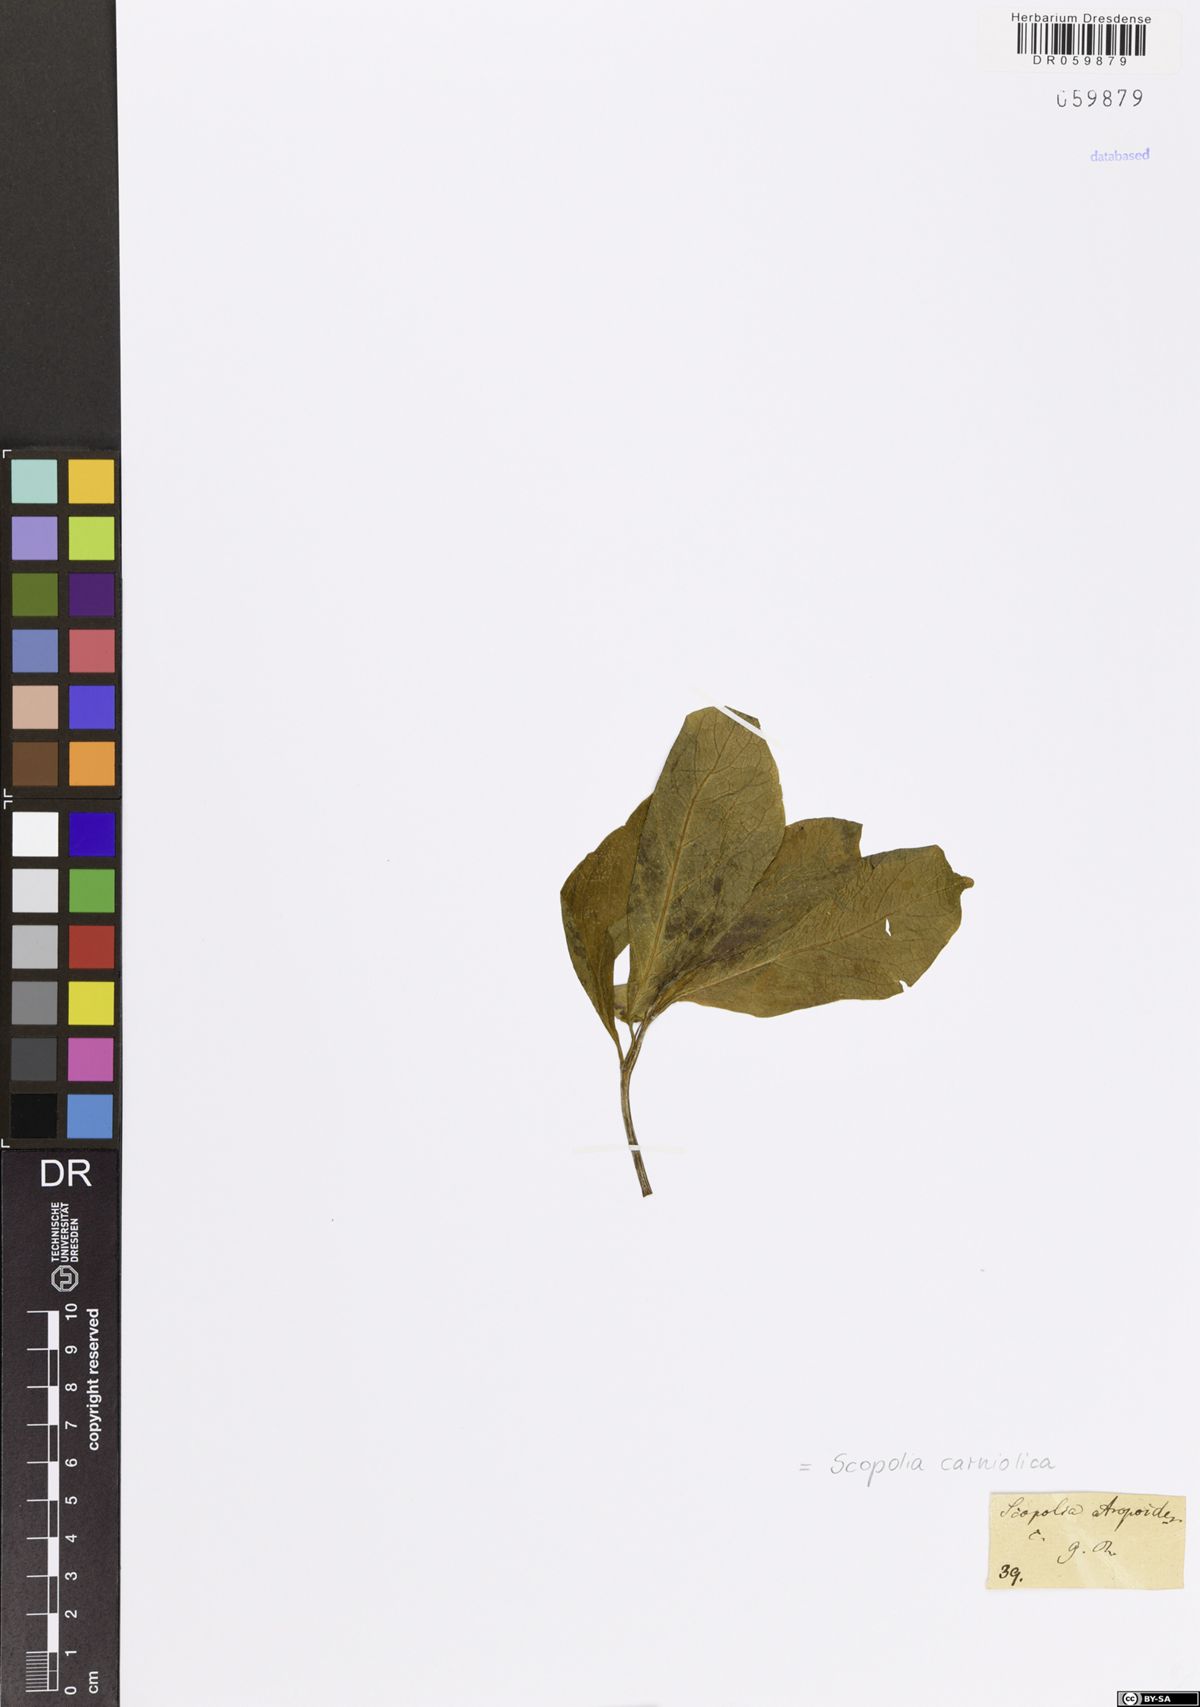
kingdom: Plantae
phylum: Tracheophyta
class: Magnoliopsida
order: Solanales
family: Solanaceae
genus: Scopolia
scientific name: Scopolia carniolica
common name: Scopolia
